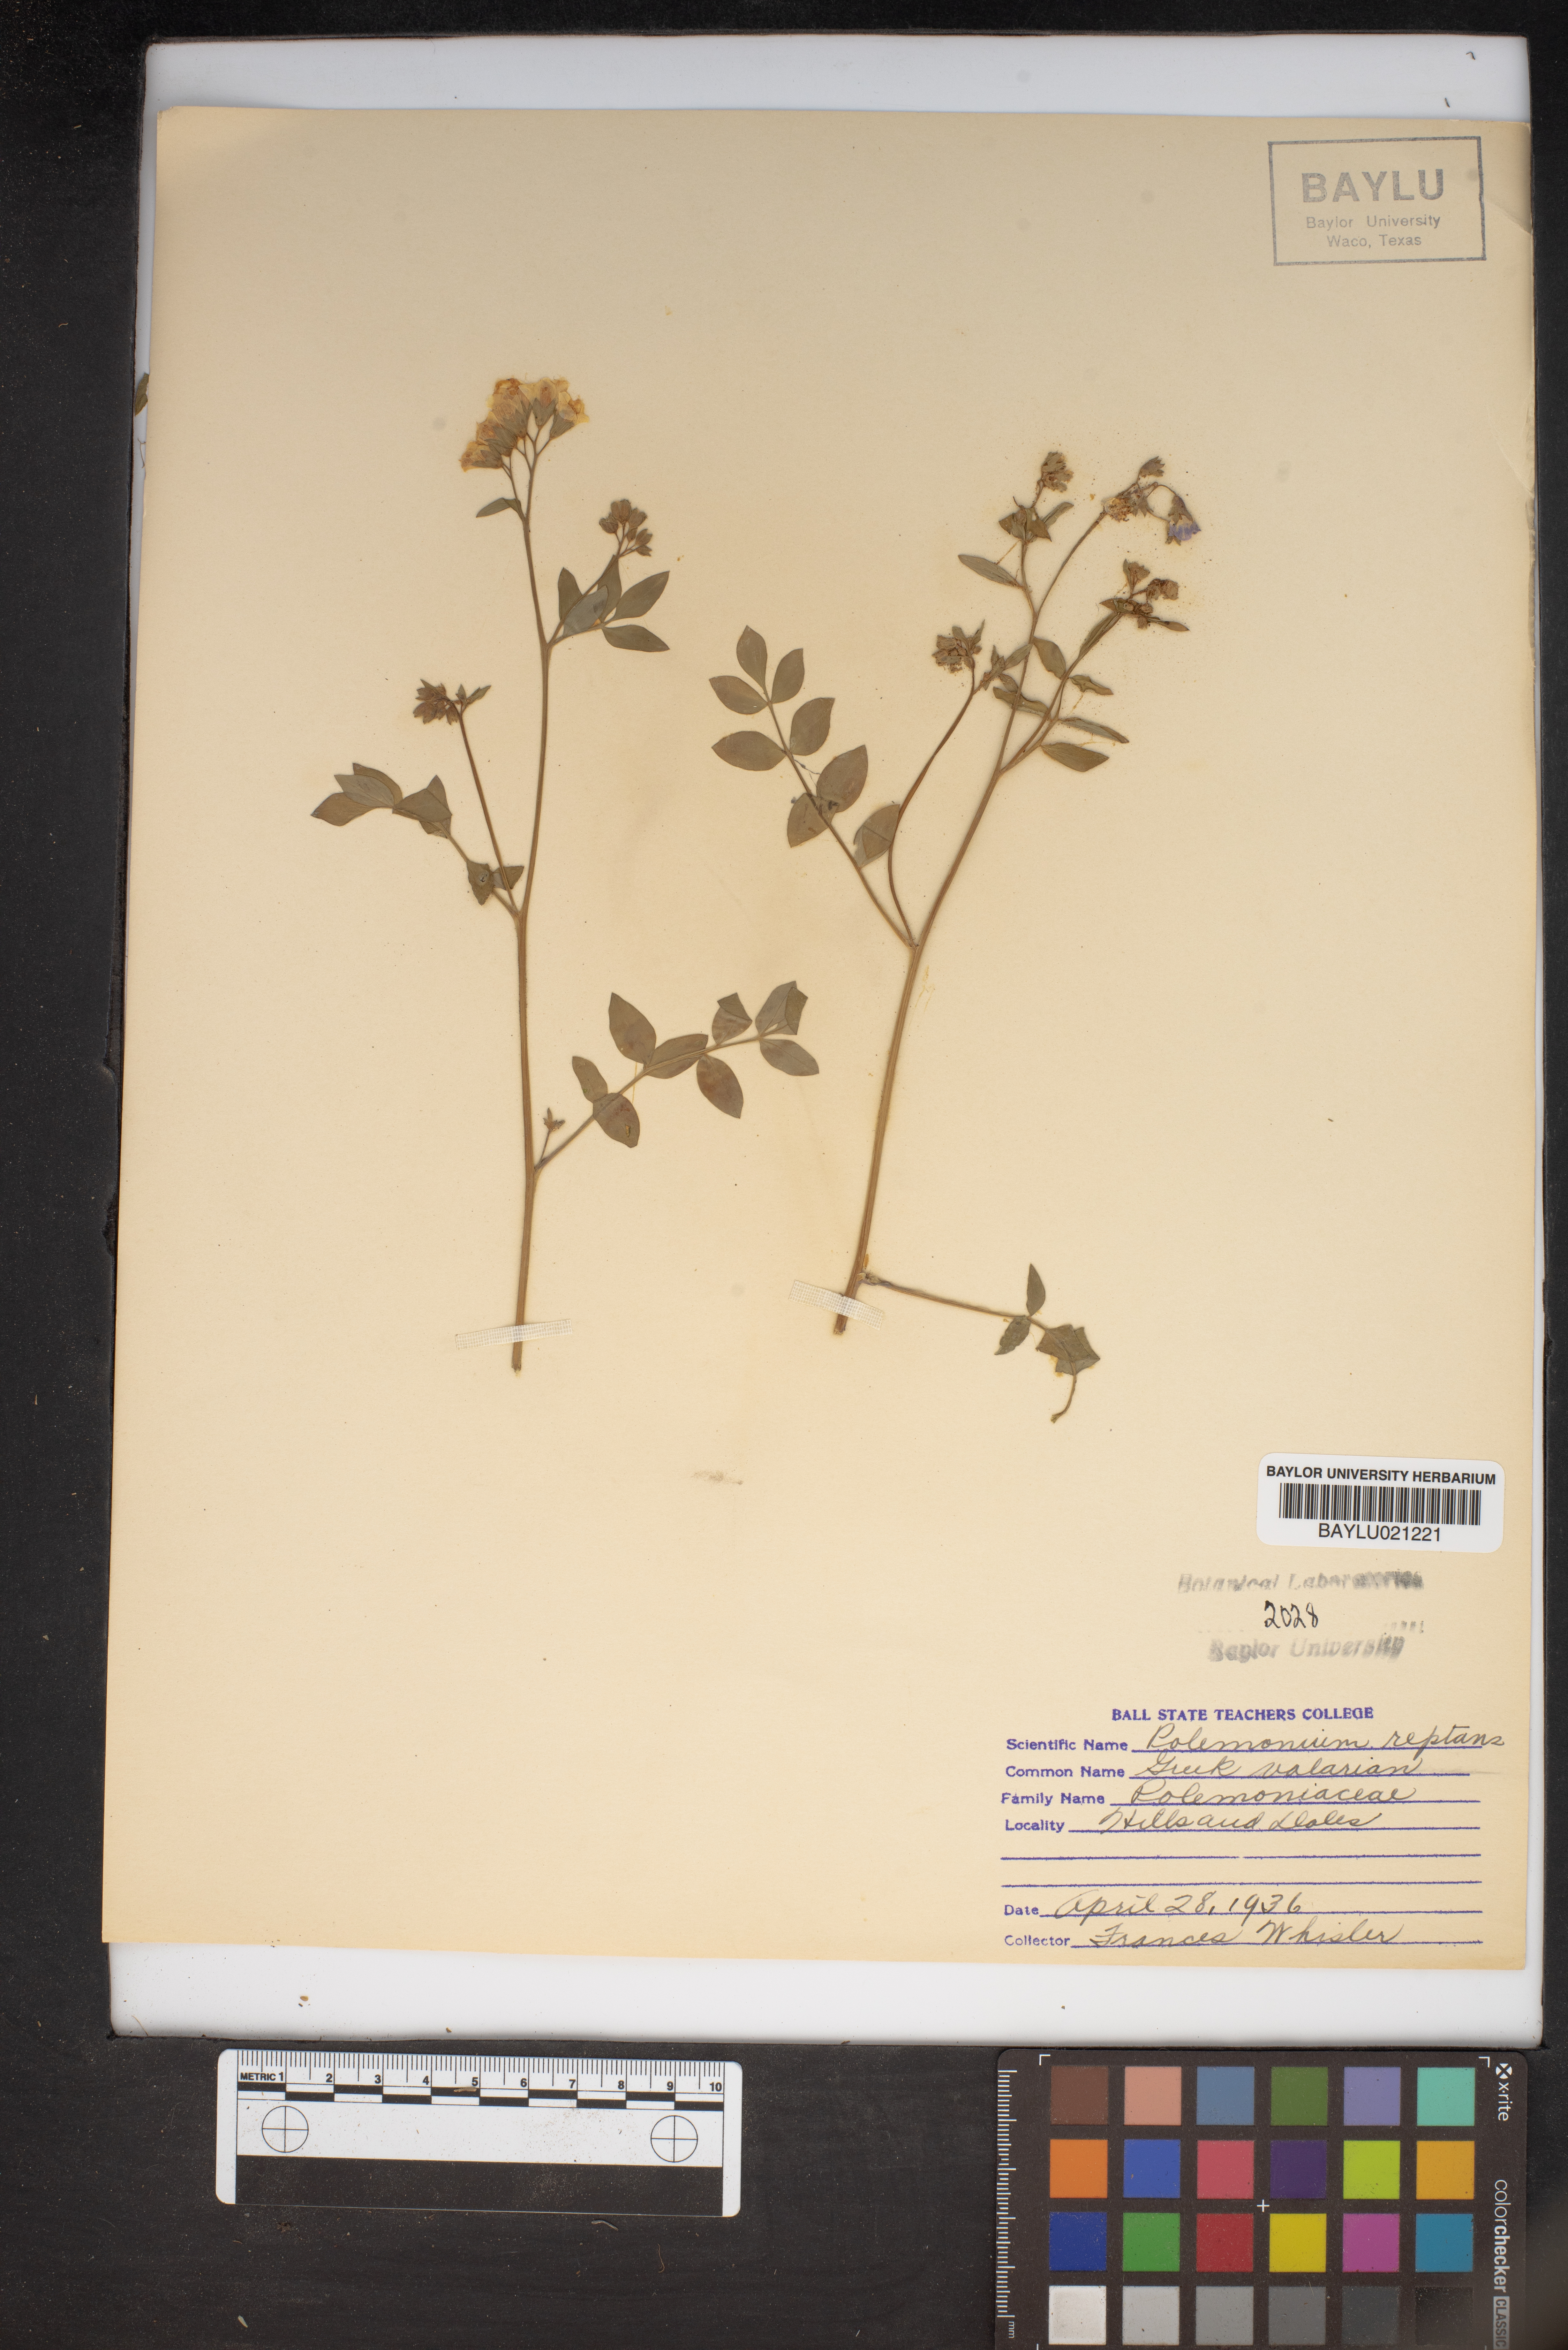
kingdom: Plantae
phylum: Tracheophyta
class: Magnoliopsida
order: Ericales
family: Polemoniaceae
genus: Polemonium
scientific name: Polemonium reptans
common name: Creeping jacob's-ladder
